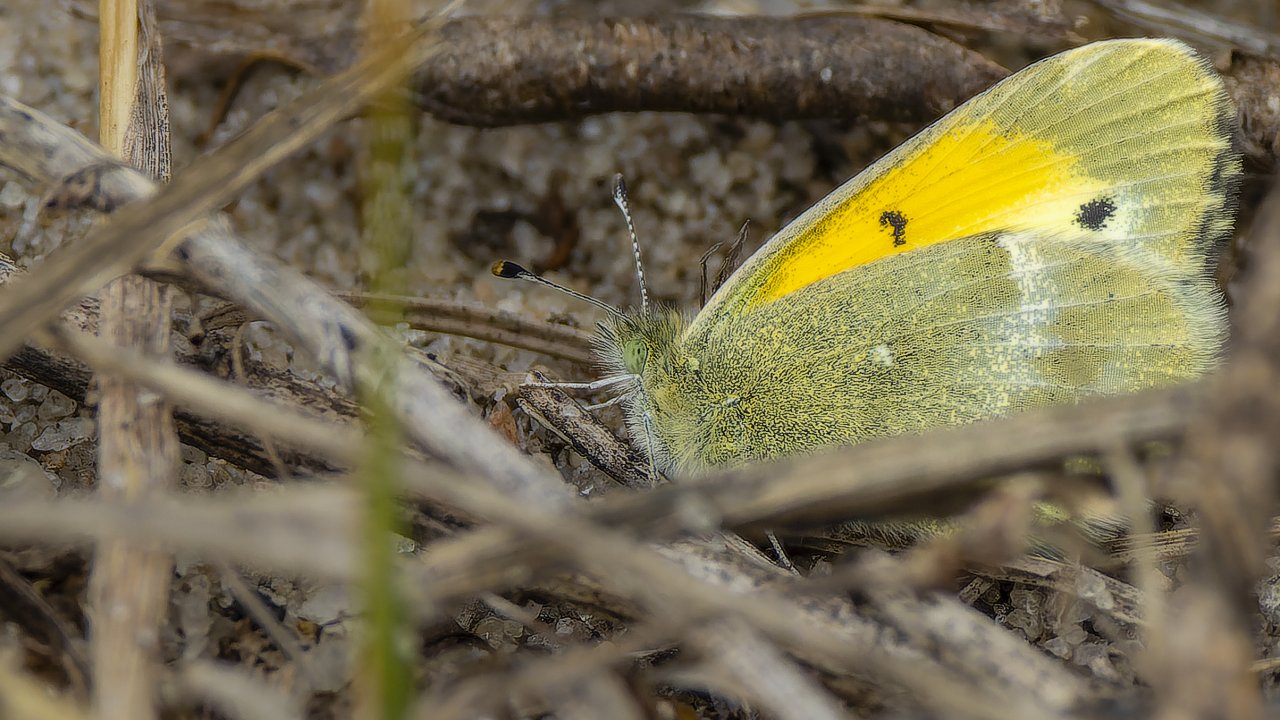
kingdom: Animalia
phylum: Arthropoda
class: Insecta
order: Lepidoptera
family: Pieridae
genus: Eurema
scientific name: Eurema daira
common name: Barred Yellow
